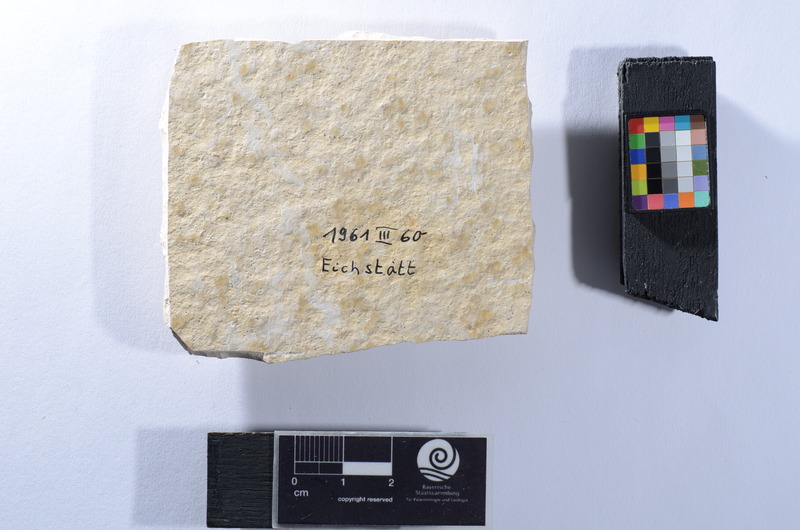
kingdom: Animalia
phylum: Chordata
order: Amiiformes
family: Caturidae
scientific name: Caturidae
